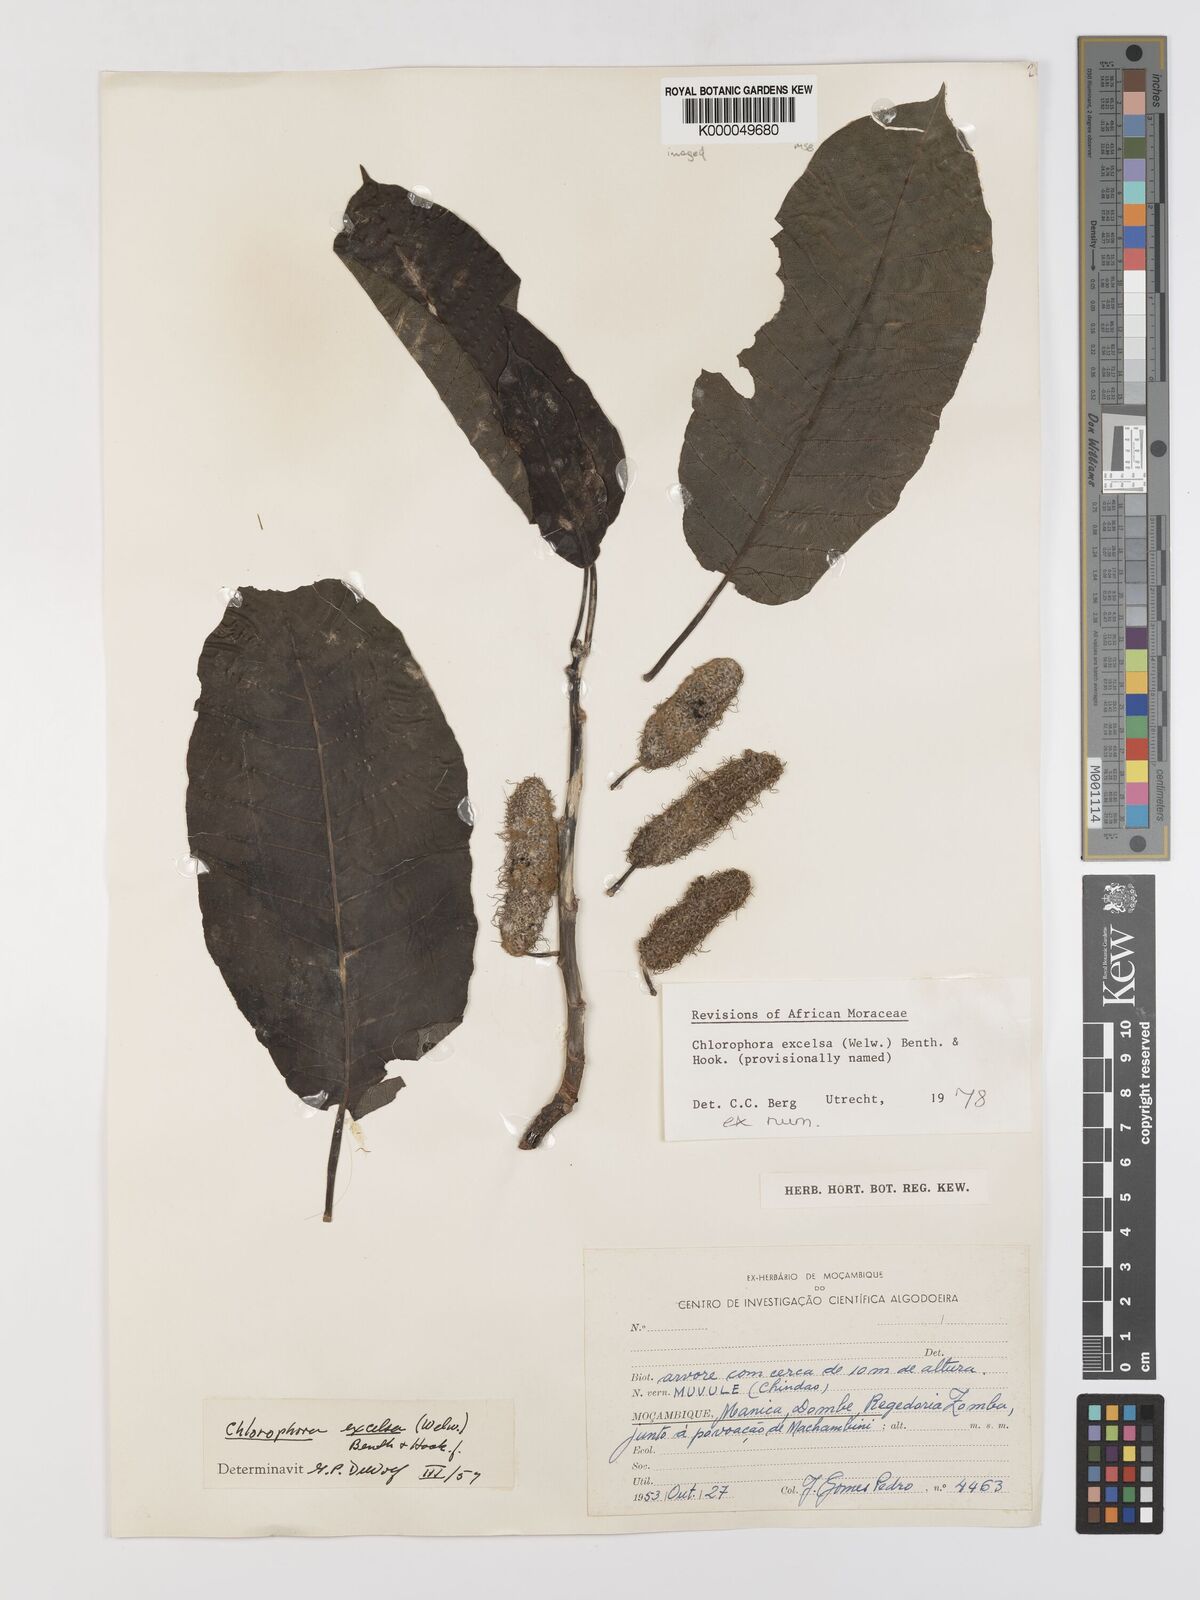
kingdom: Plantae
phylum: Tracheophyta
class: Magnoliopsida
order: Rosales
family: Moraceae
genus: Milicia
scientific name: Milicia excelsa
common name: African teak
